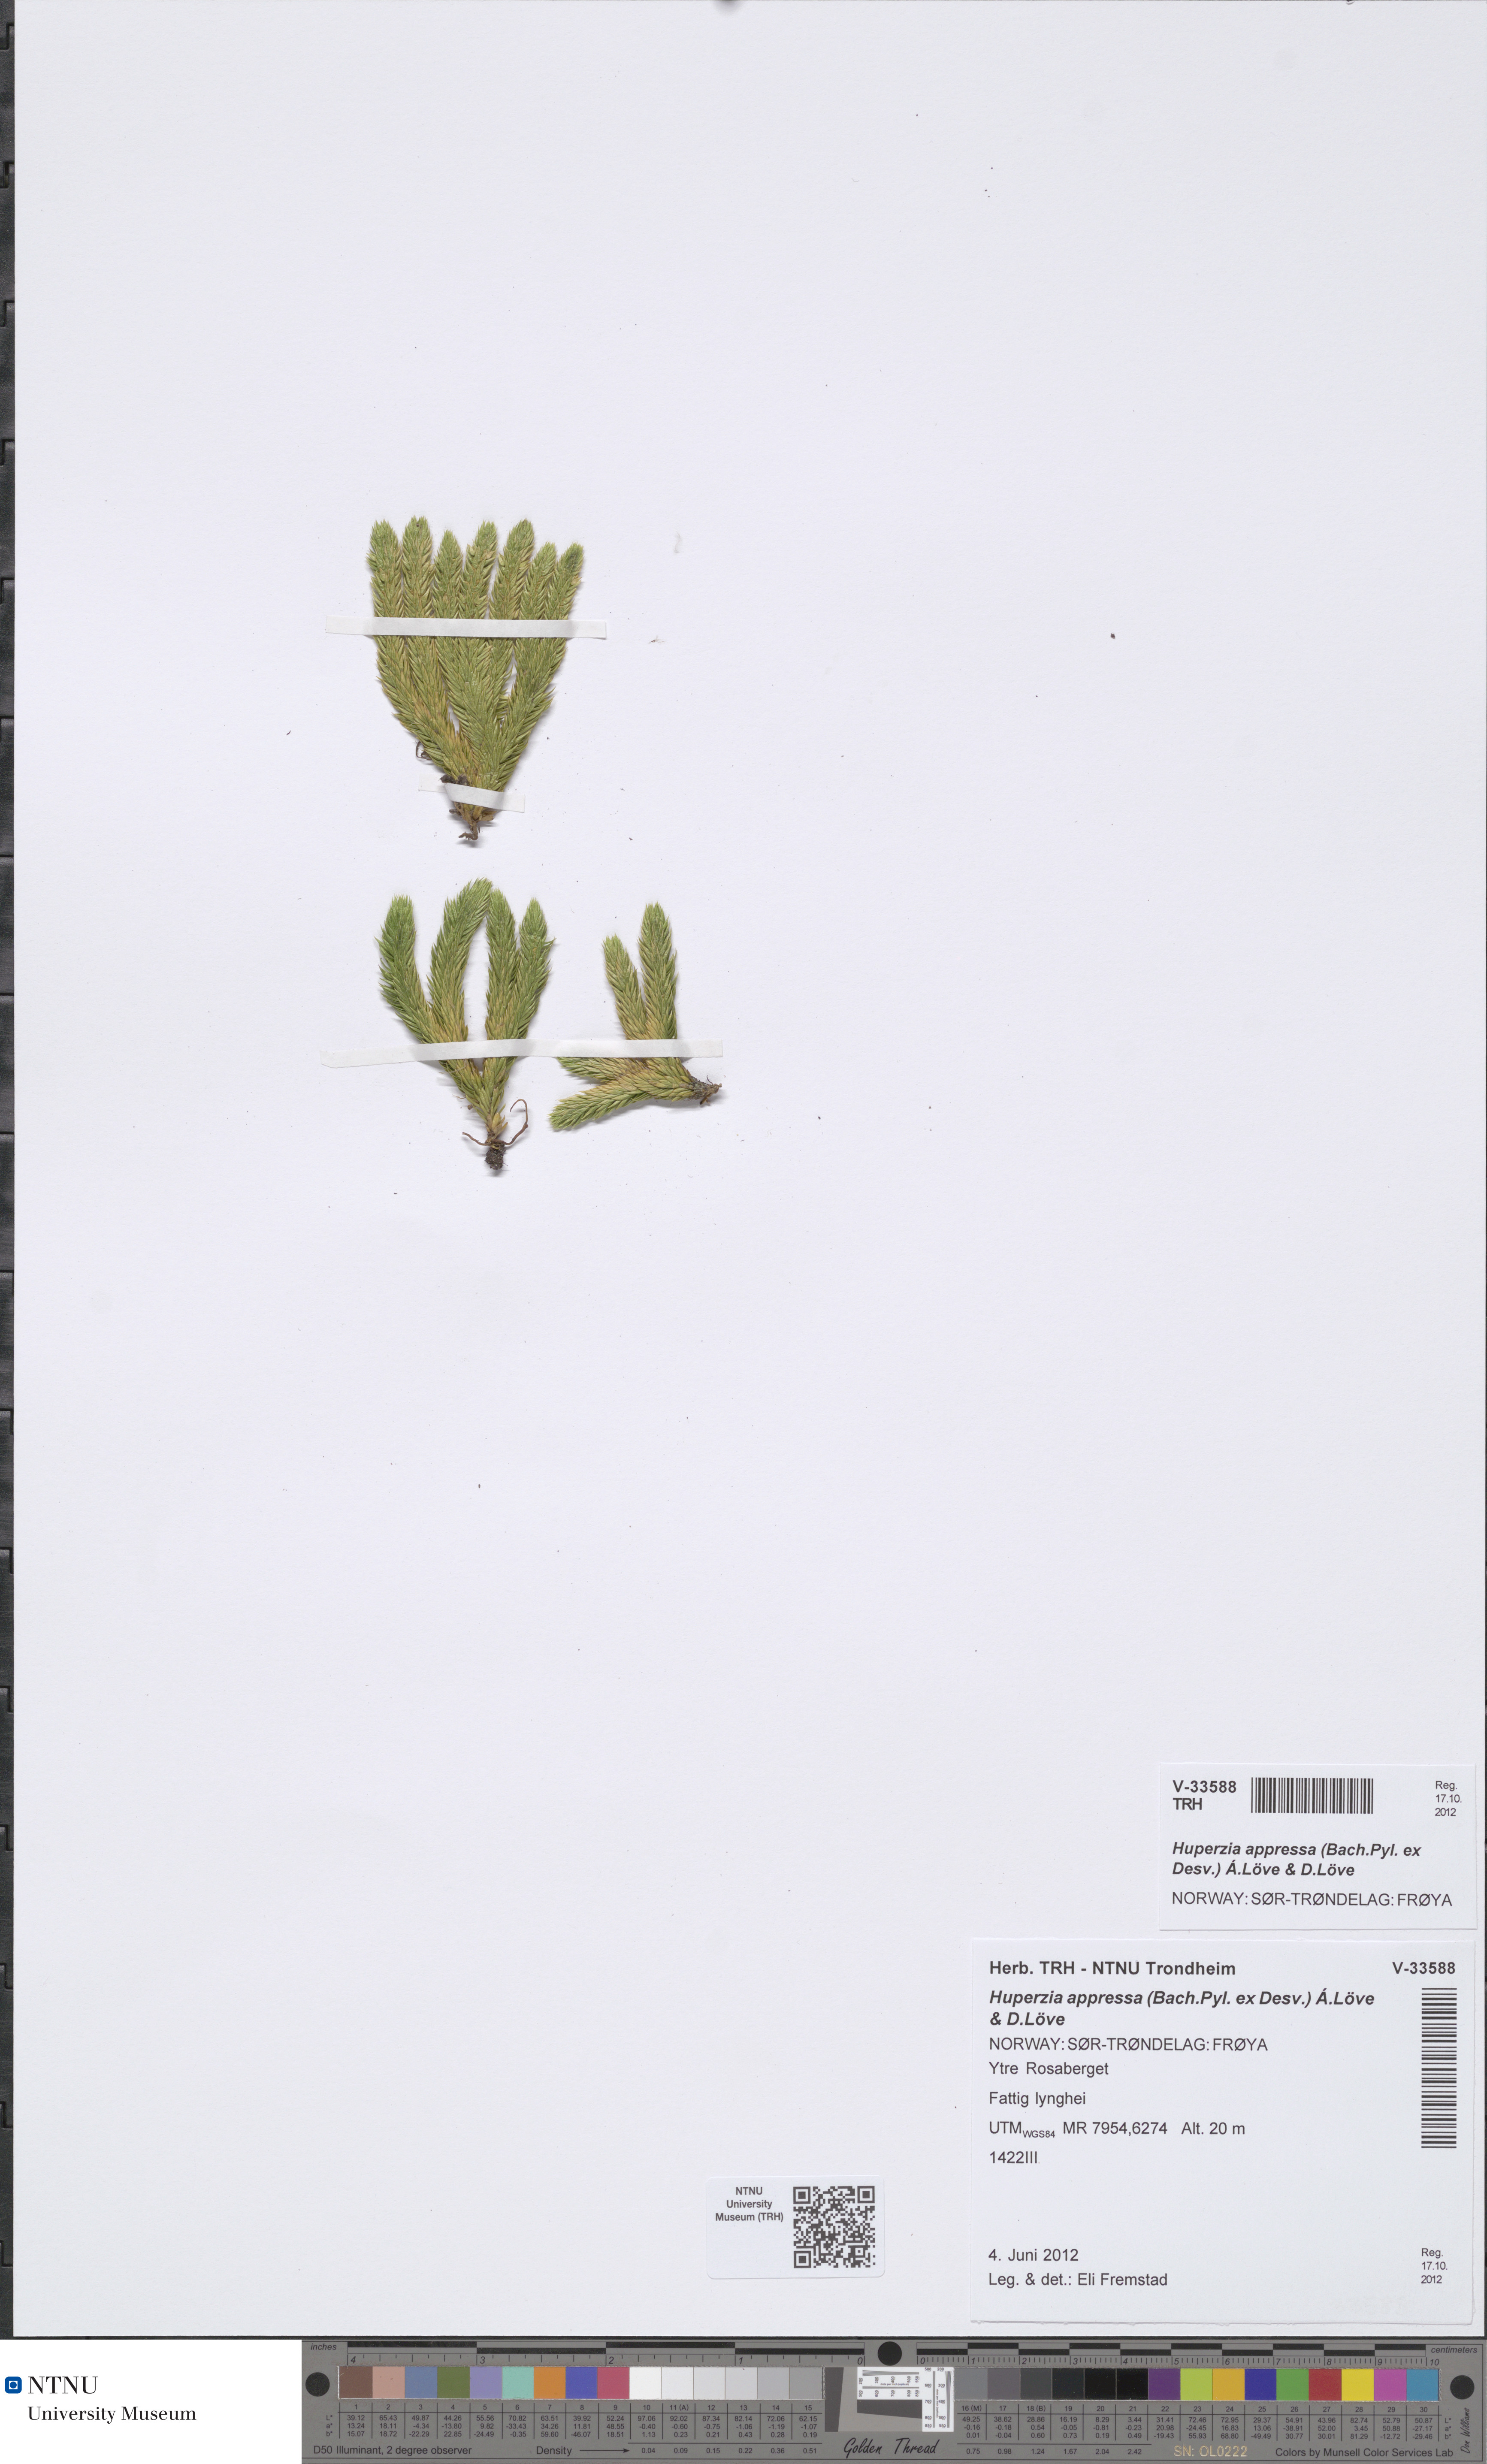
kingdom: Plantae
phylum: Tracheophyta
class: Lycopodiopsida
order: Lycopodiales
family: Lycopodiaceae
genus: Huperzia
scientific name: Huperzia selago
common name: Northern firmoss
